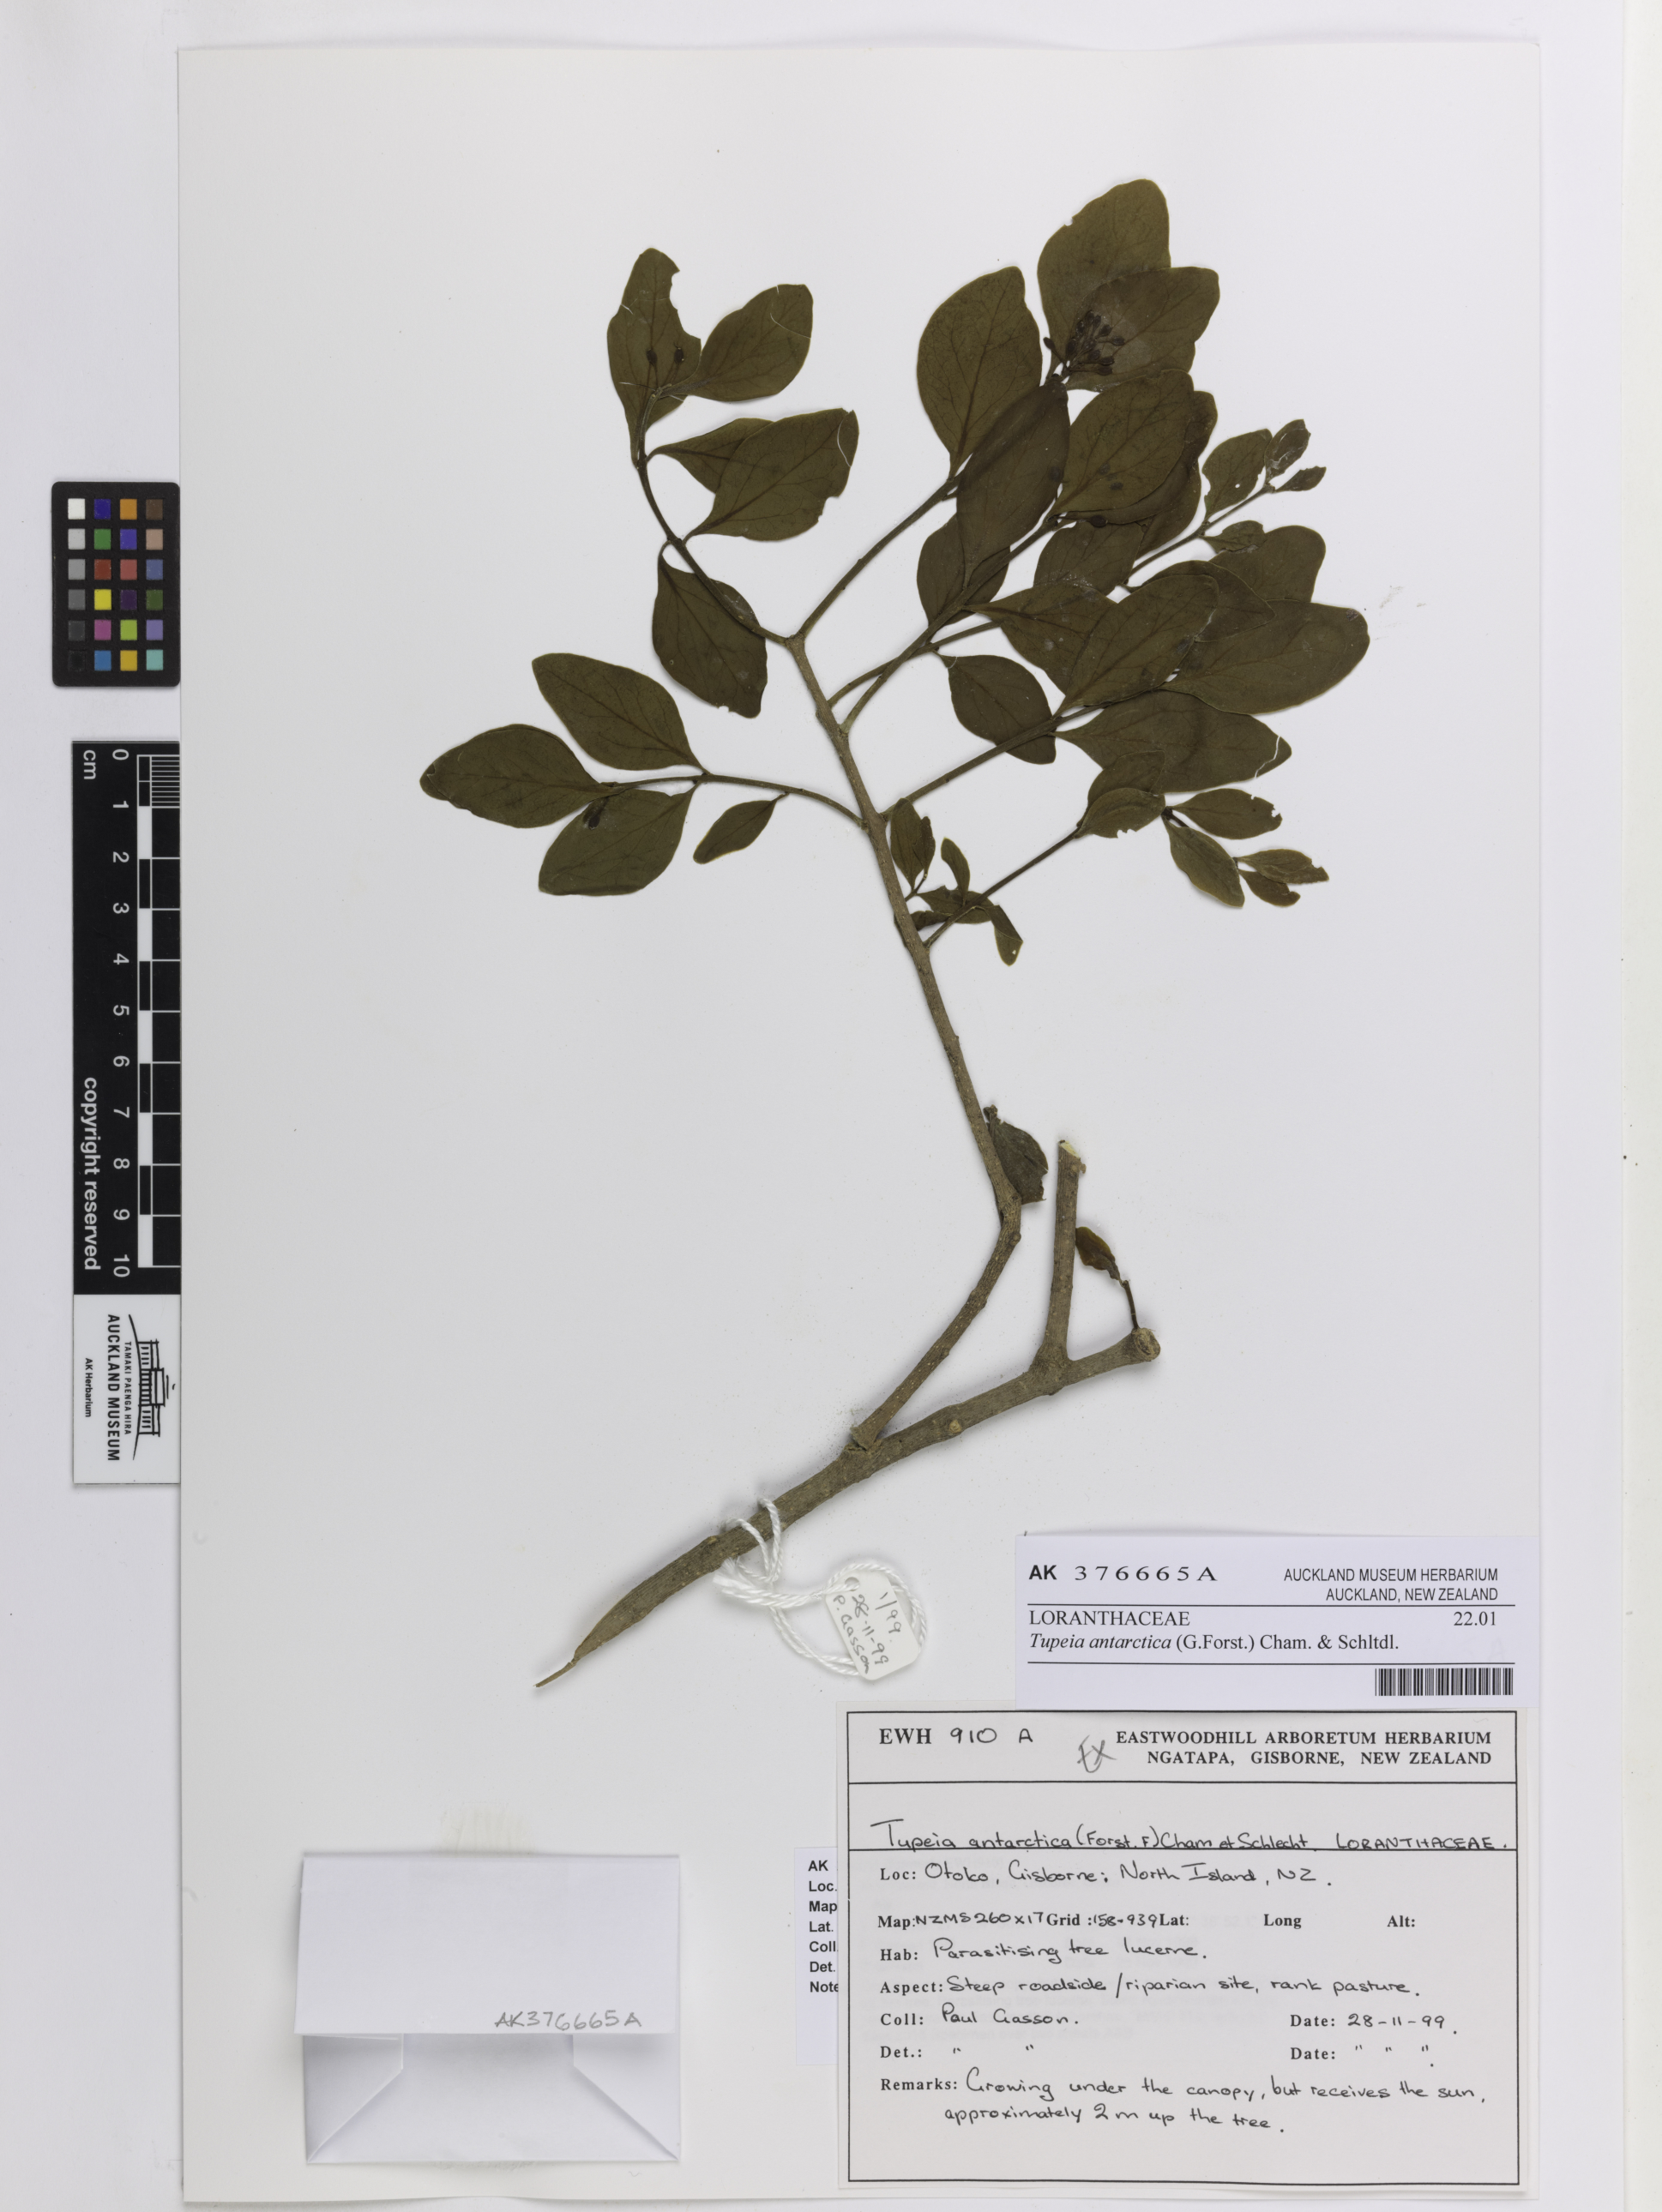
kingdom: Plantae
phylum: Tracheophyta
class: Magnoliopsida
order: Santalales
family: Loranthaceae
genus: Tupeia
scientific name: Tupeia antarctica
